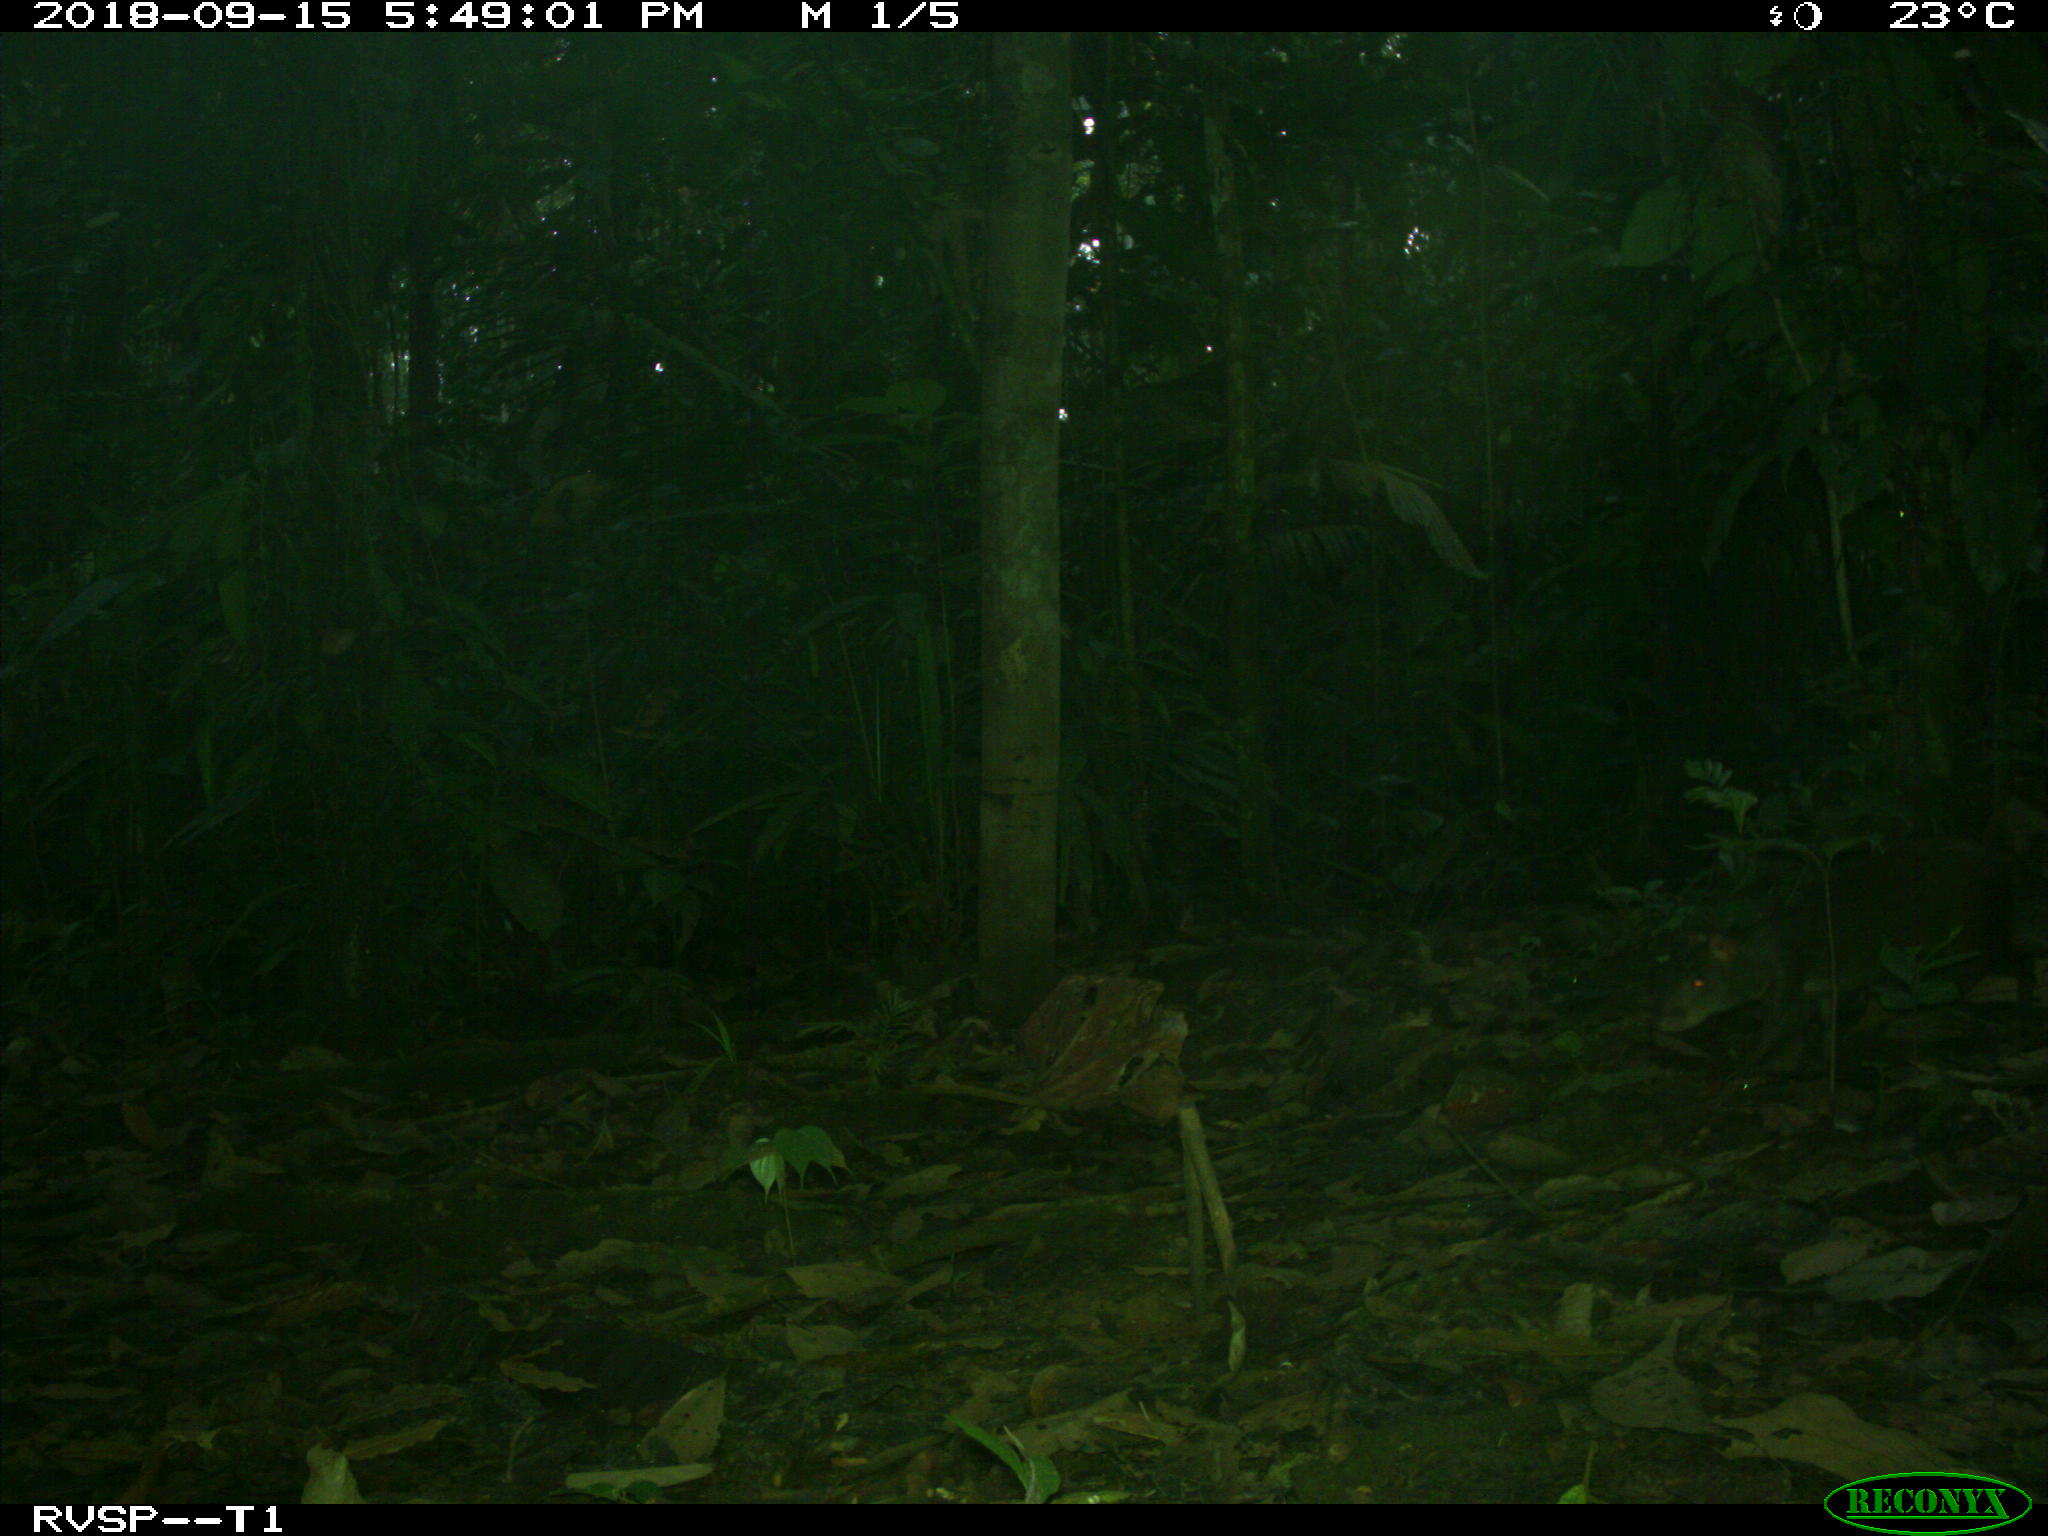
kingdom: Animalia
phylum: Chordata
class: Mammalia
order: Rodentia
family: Dasyproctidae
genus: Dasyprocta
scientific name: Dasyprocta punctata
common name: Central american agouti
